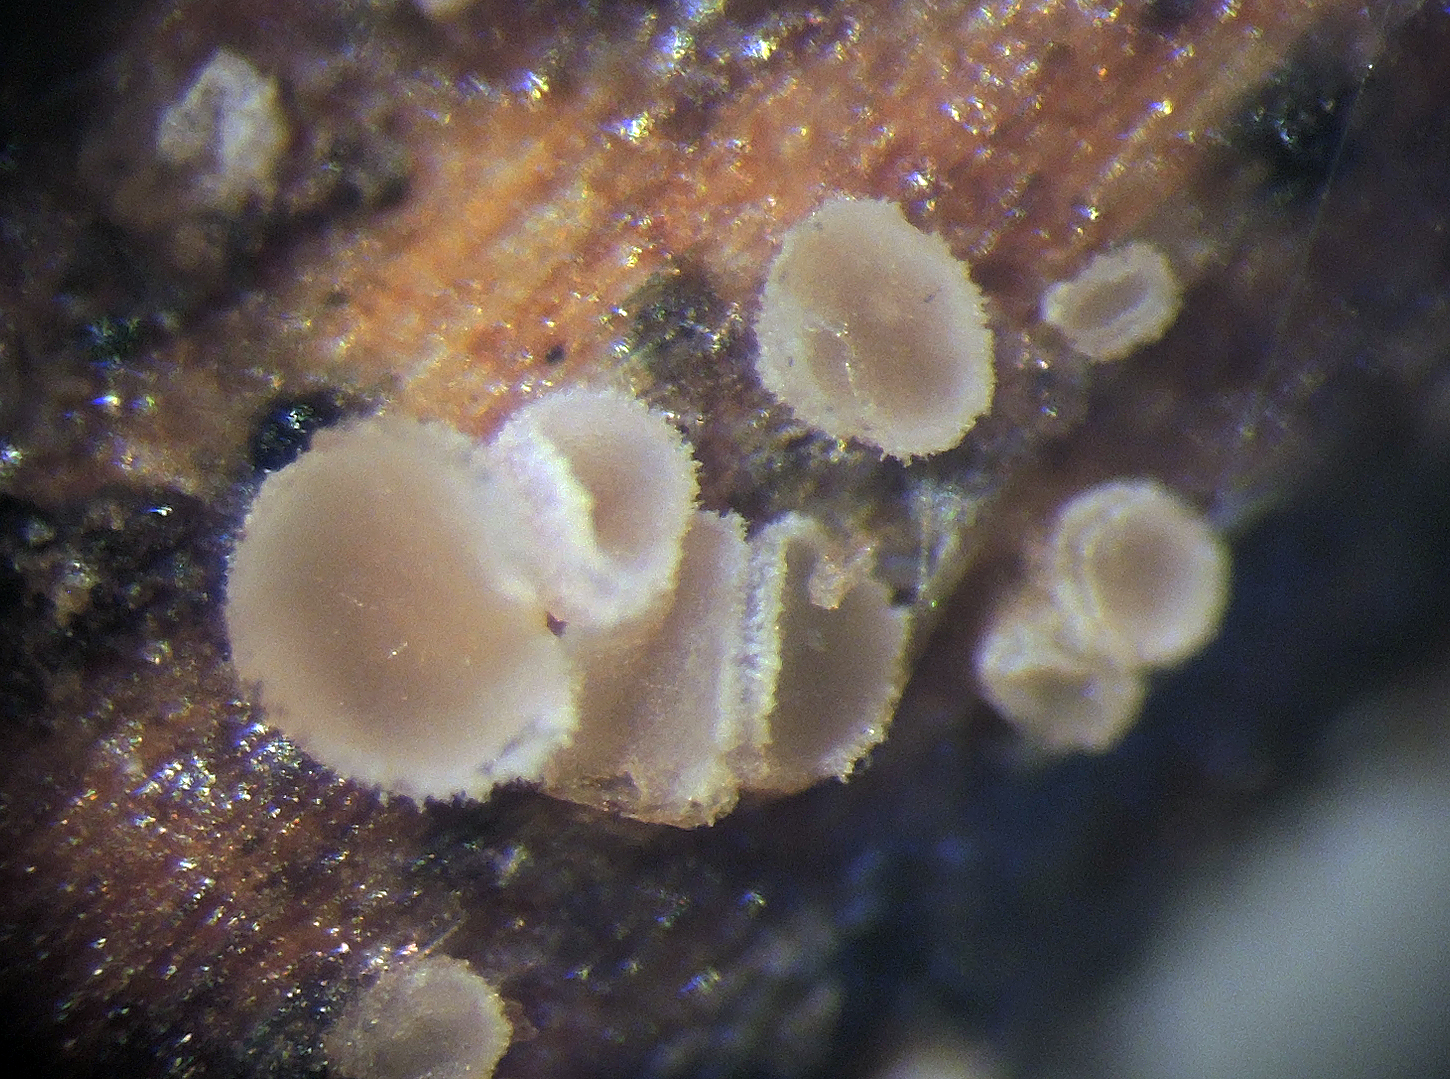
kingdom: Fungi
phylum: Ascomycota
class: Leotiomycetes
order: Helotiales
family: Hyaloscyphaceae
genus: Cistella
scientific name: Cistella hungarica
